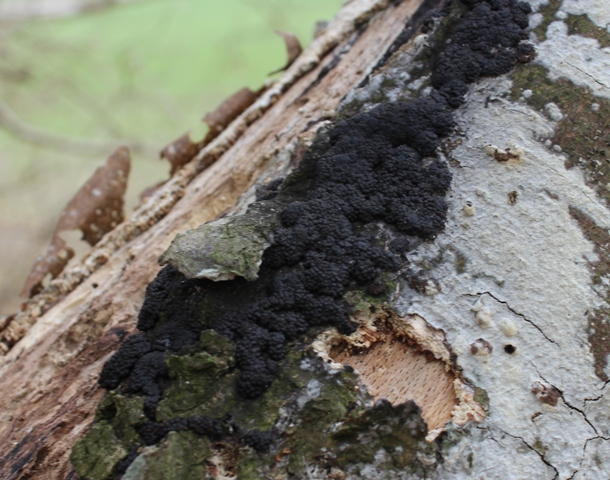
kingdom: Fungi
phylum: Ascomycota
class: Sordariomycetes
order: Xylariales
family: Hypoxylaceae
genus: Jackrogersella
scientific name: Jackrogersella cohaerens
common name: sammenflydende kulbær
